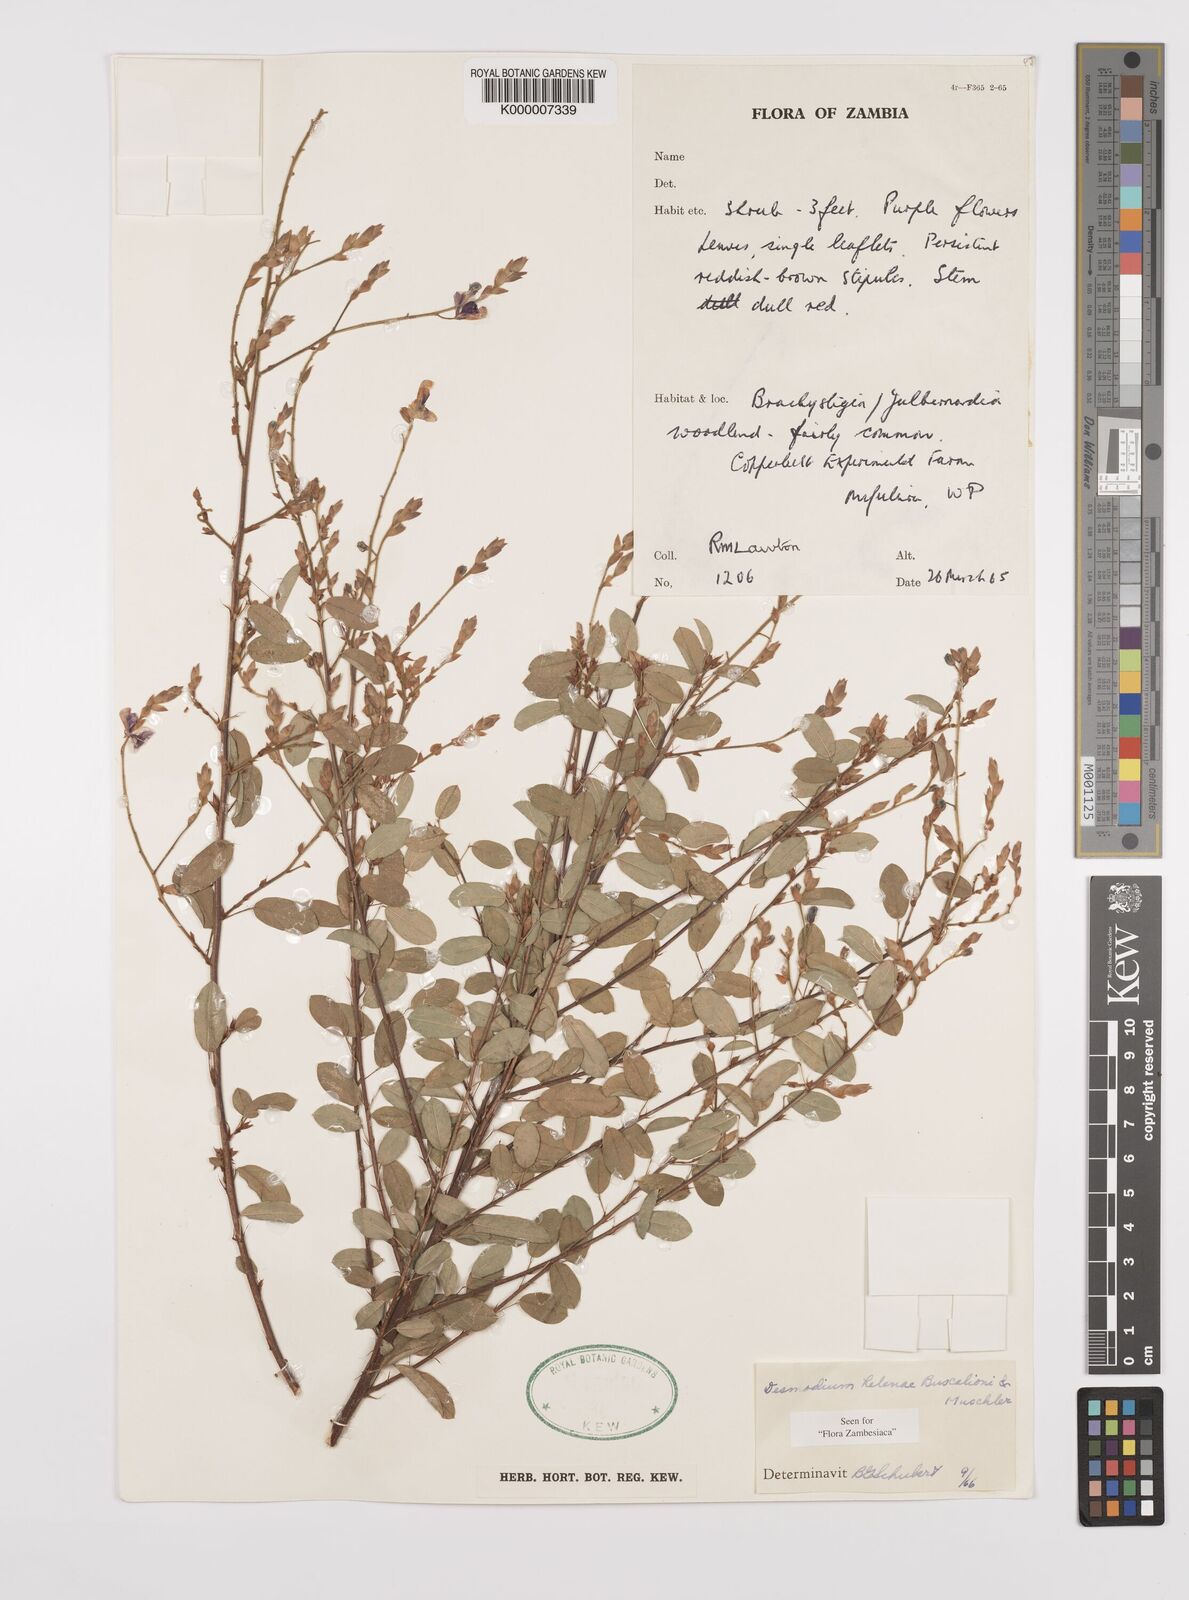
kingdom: Plantae
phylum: Tracheophyta
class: Magnoliopsida
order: Fabales
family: Fabaceae
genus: Grona
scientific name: Grona helenae
